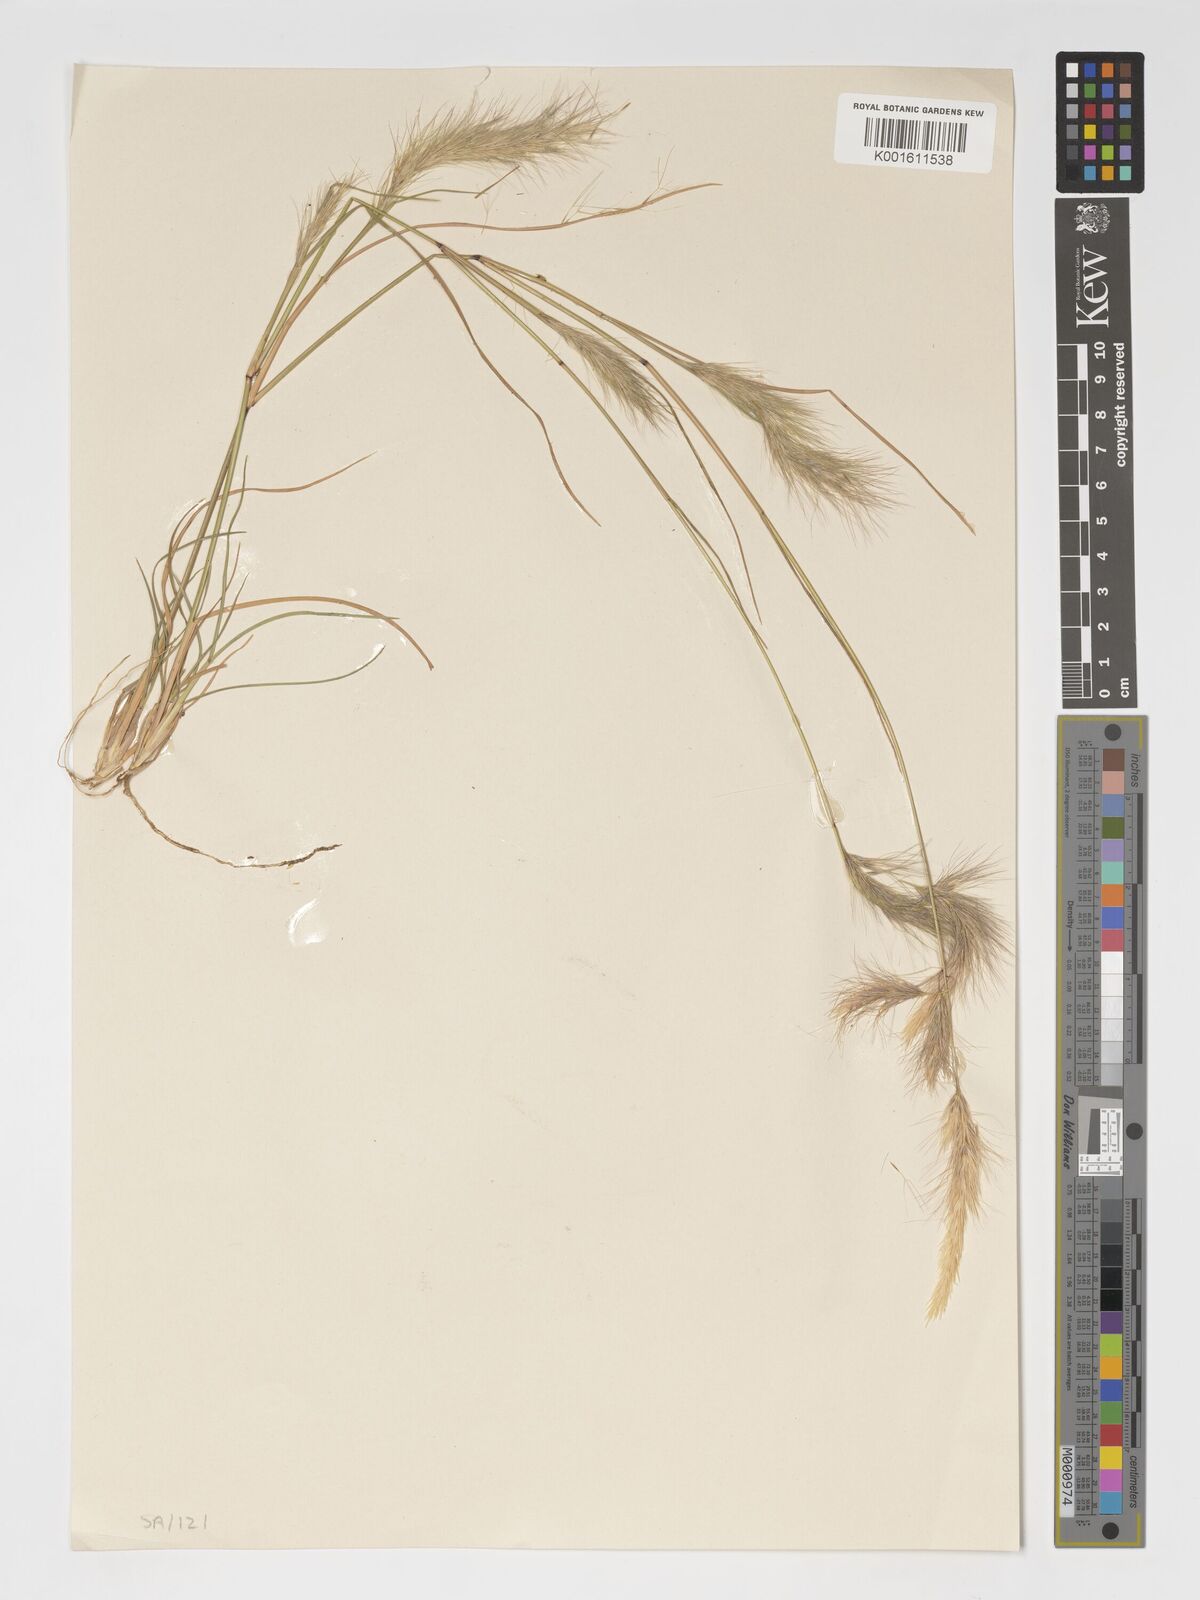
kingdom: Plantae
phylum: Tracheophyta
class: Liliopsida
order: Poales
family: Poaceae
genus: Aristida
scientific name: Aristida congesta
